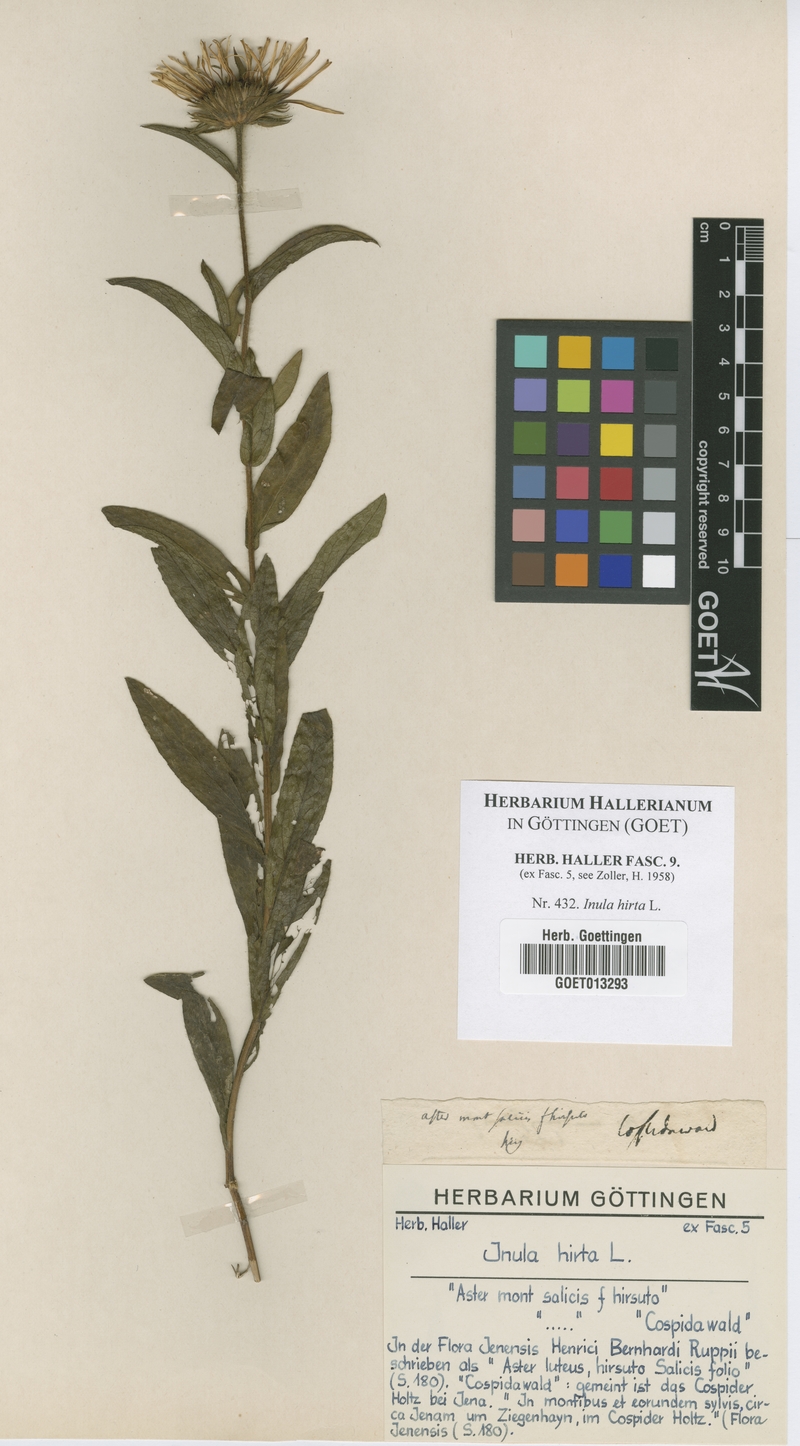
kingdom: Plantae
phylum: Tracheophyta
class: Magnoliopsida
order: Asterales
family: Asteraceae
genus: Pentanema
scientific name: Pentanema hirtum
